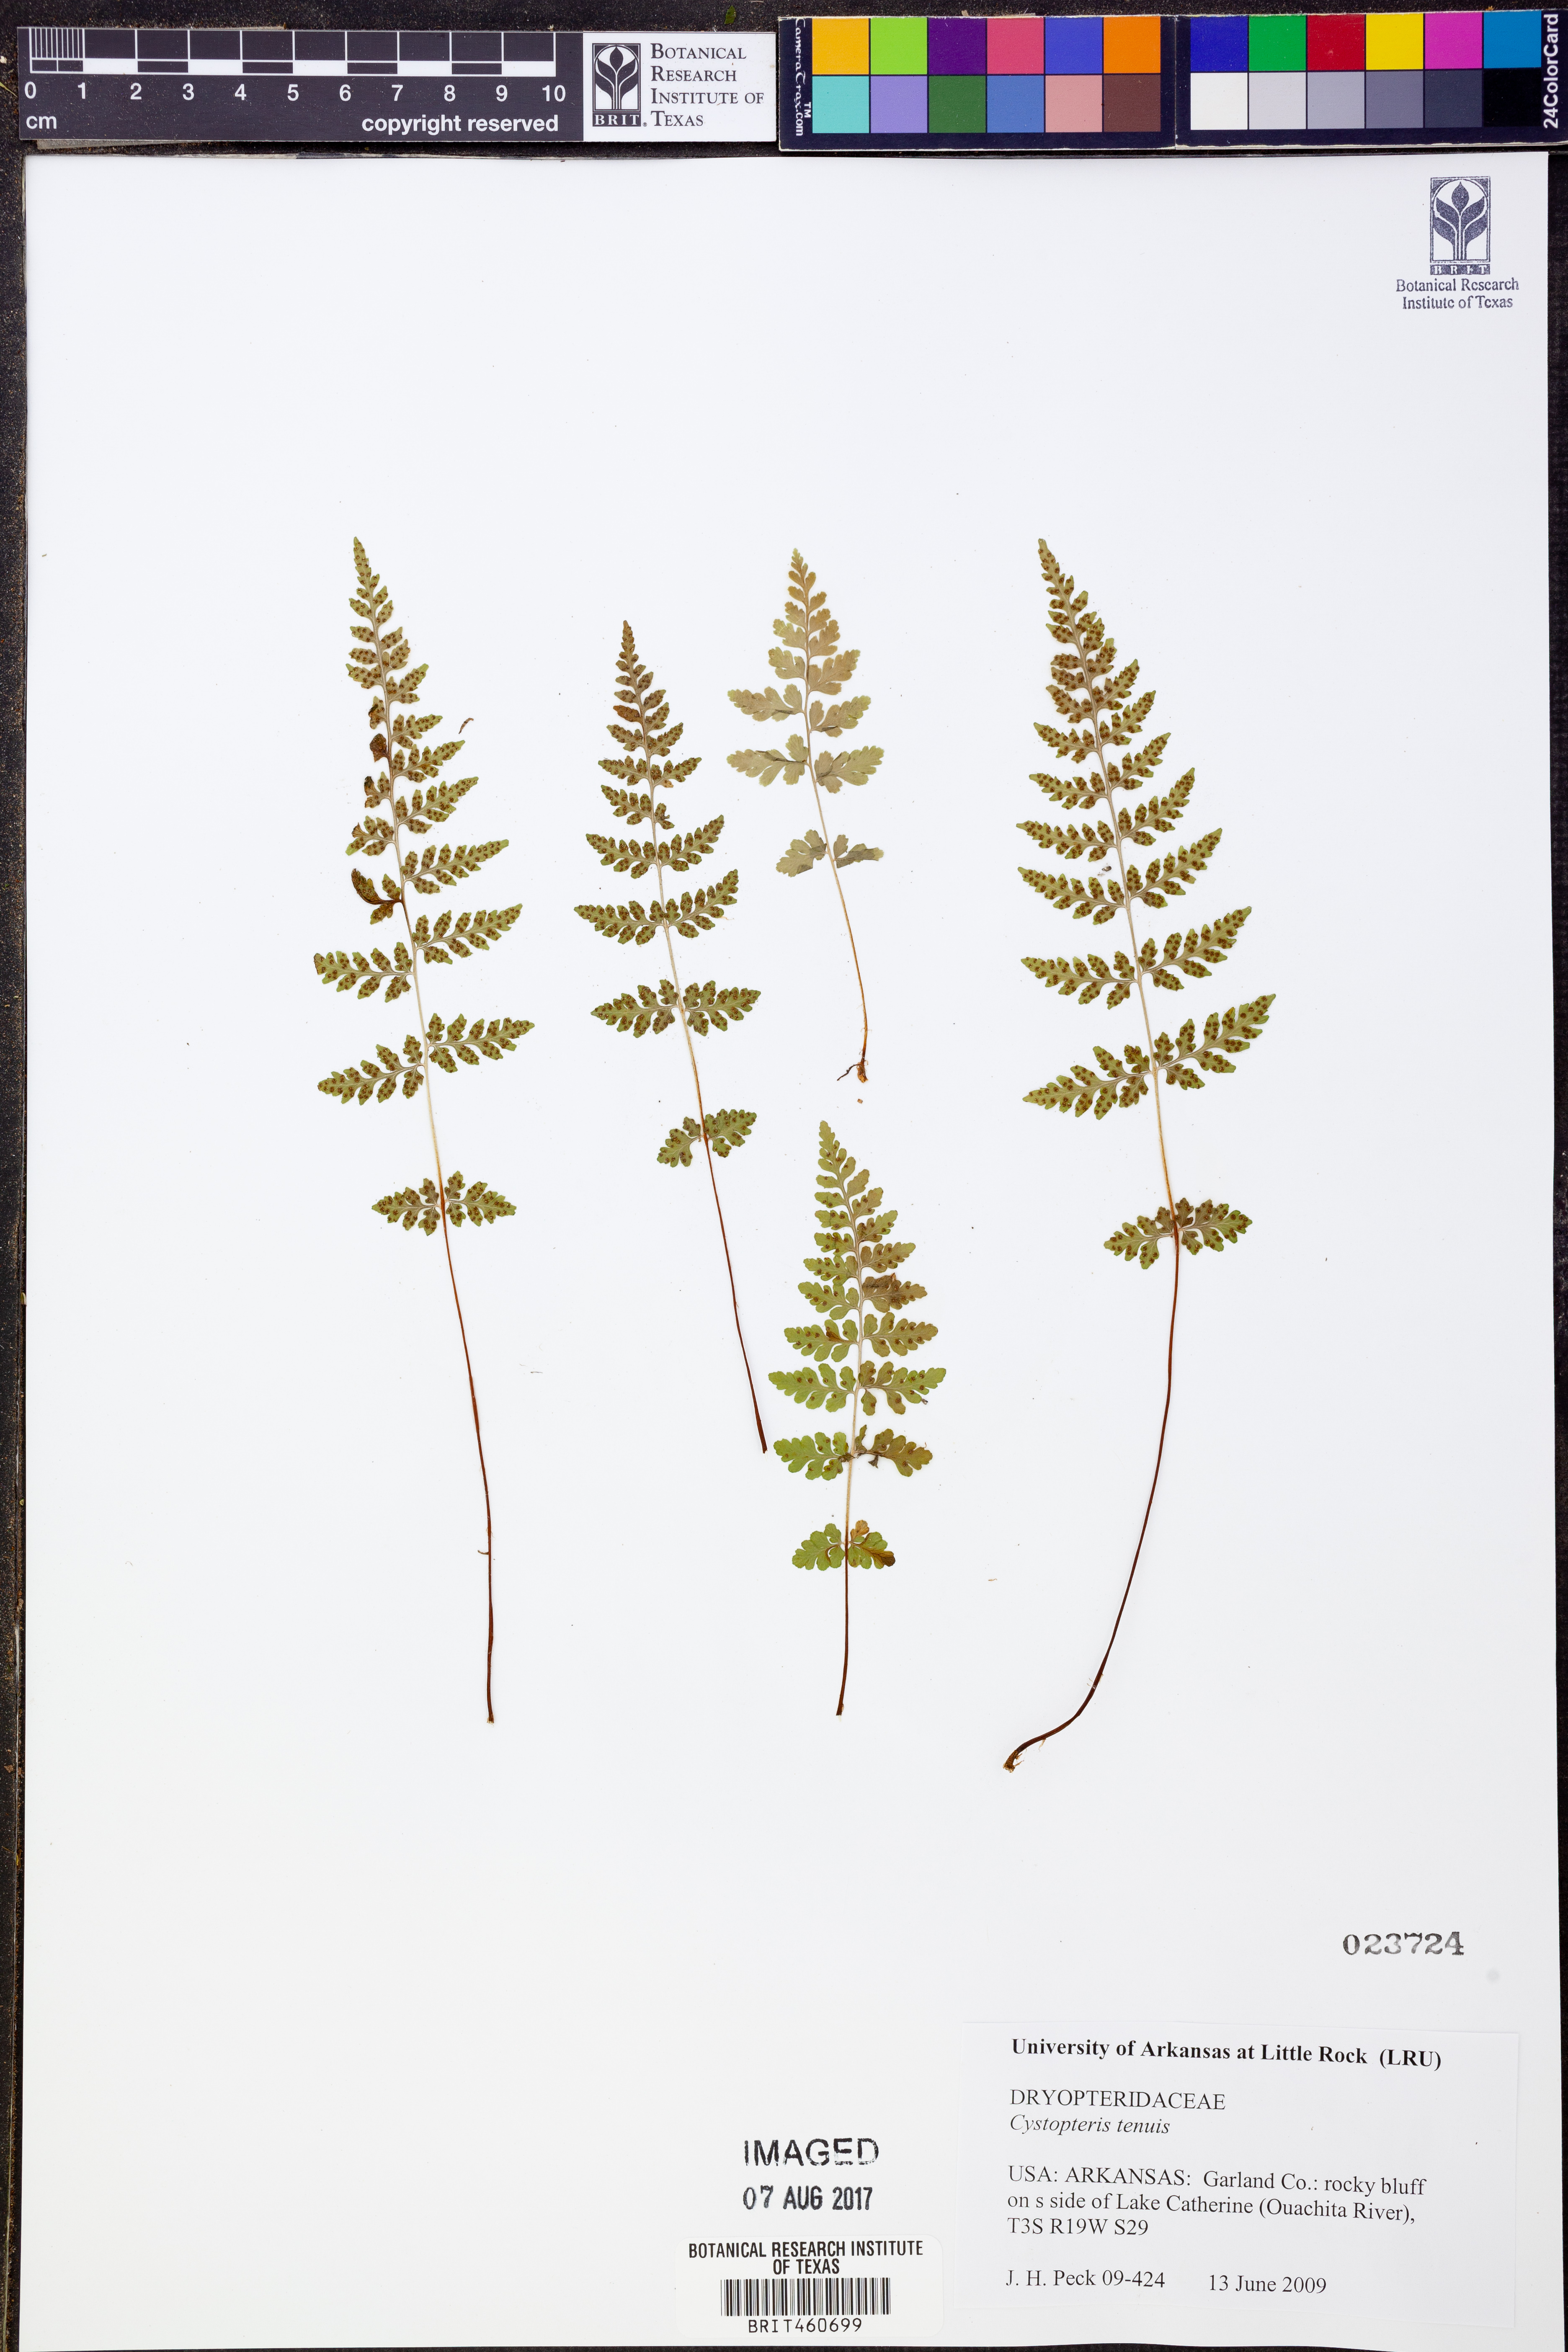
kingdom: Plantae
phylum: Tracheophyta
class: Polypodiopsida
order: Polypodiales
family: Cystopteridaceae
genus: Cystopteris
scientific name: Cystopteris tenuis
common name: Mackay's brittle fern
